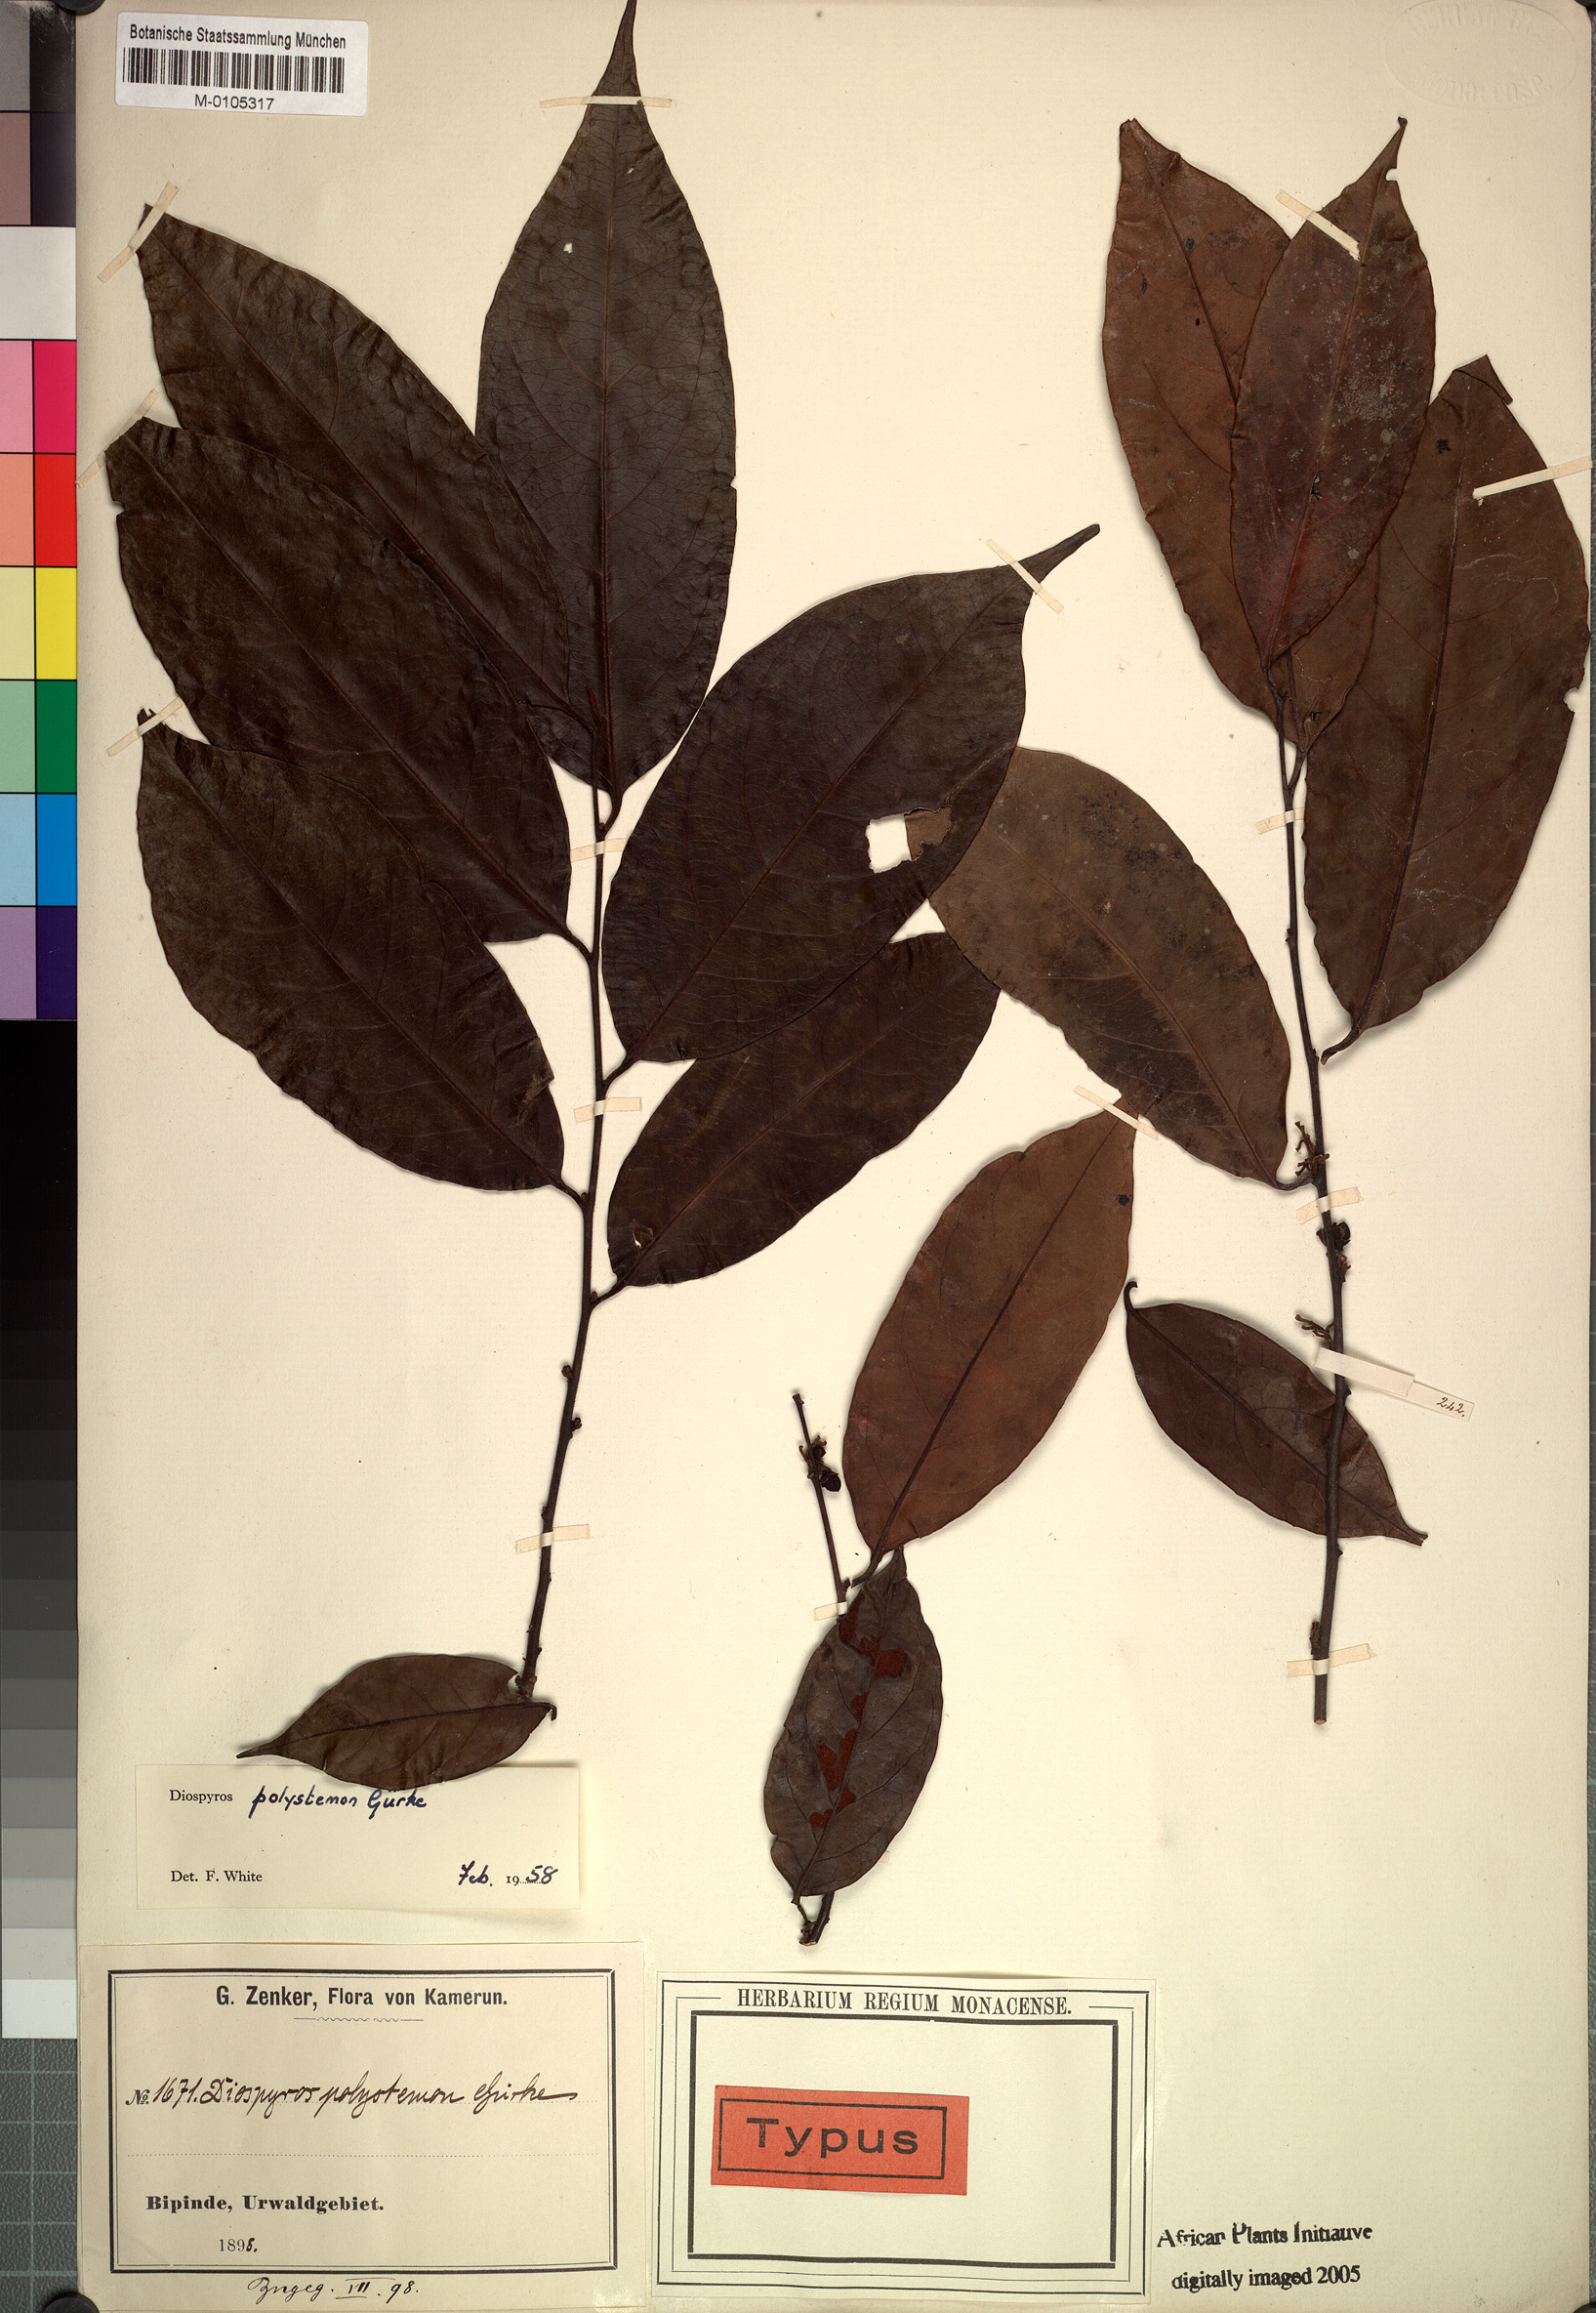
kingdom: Plantae
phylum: Tracheophyta
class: Magnoliopsida
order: Ericales
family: Ebenaceae
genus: Diospyros
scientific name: Diospyros polystemon
